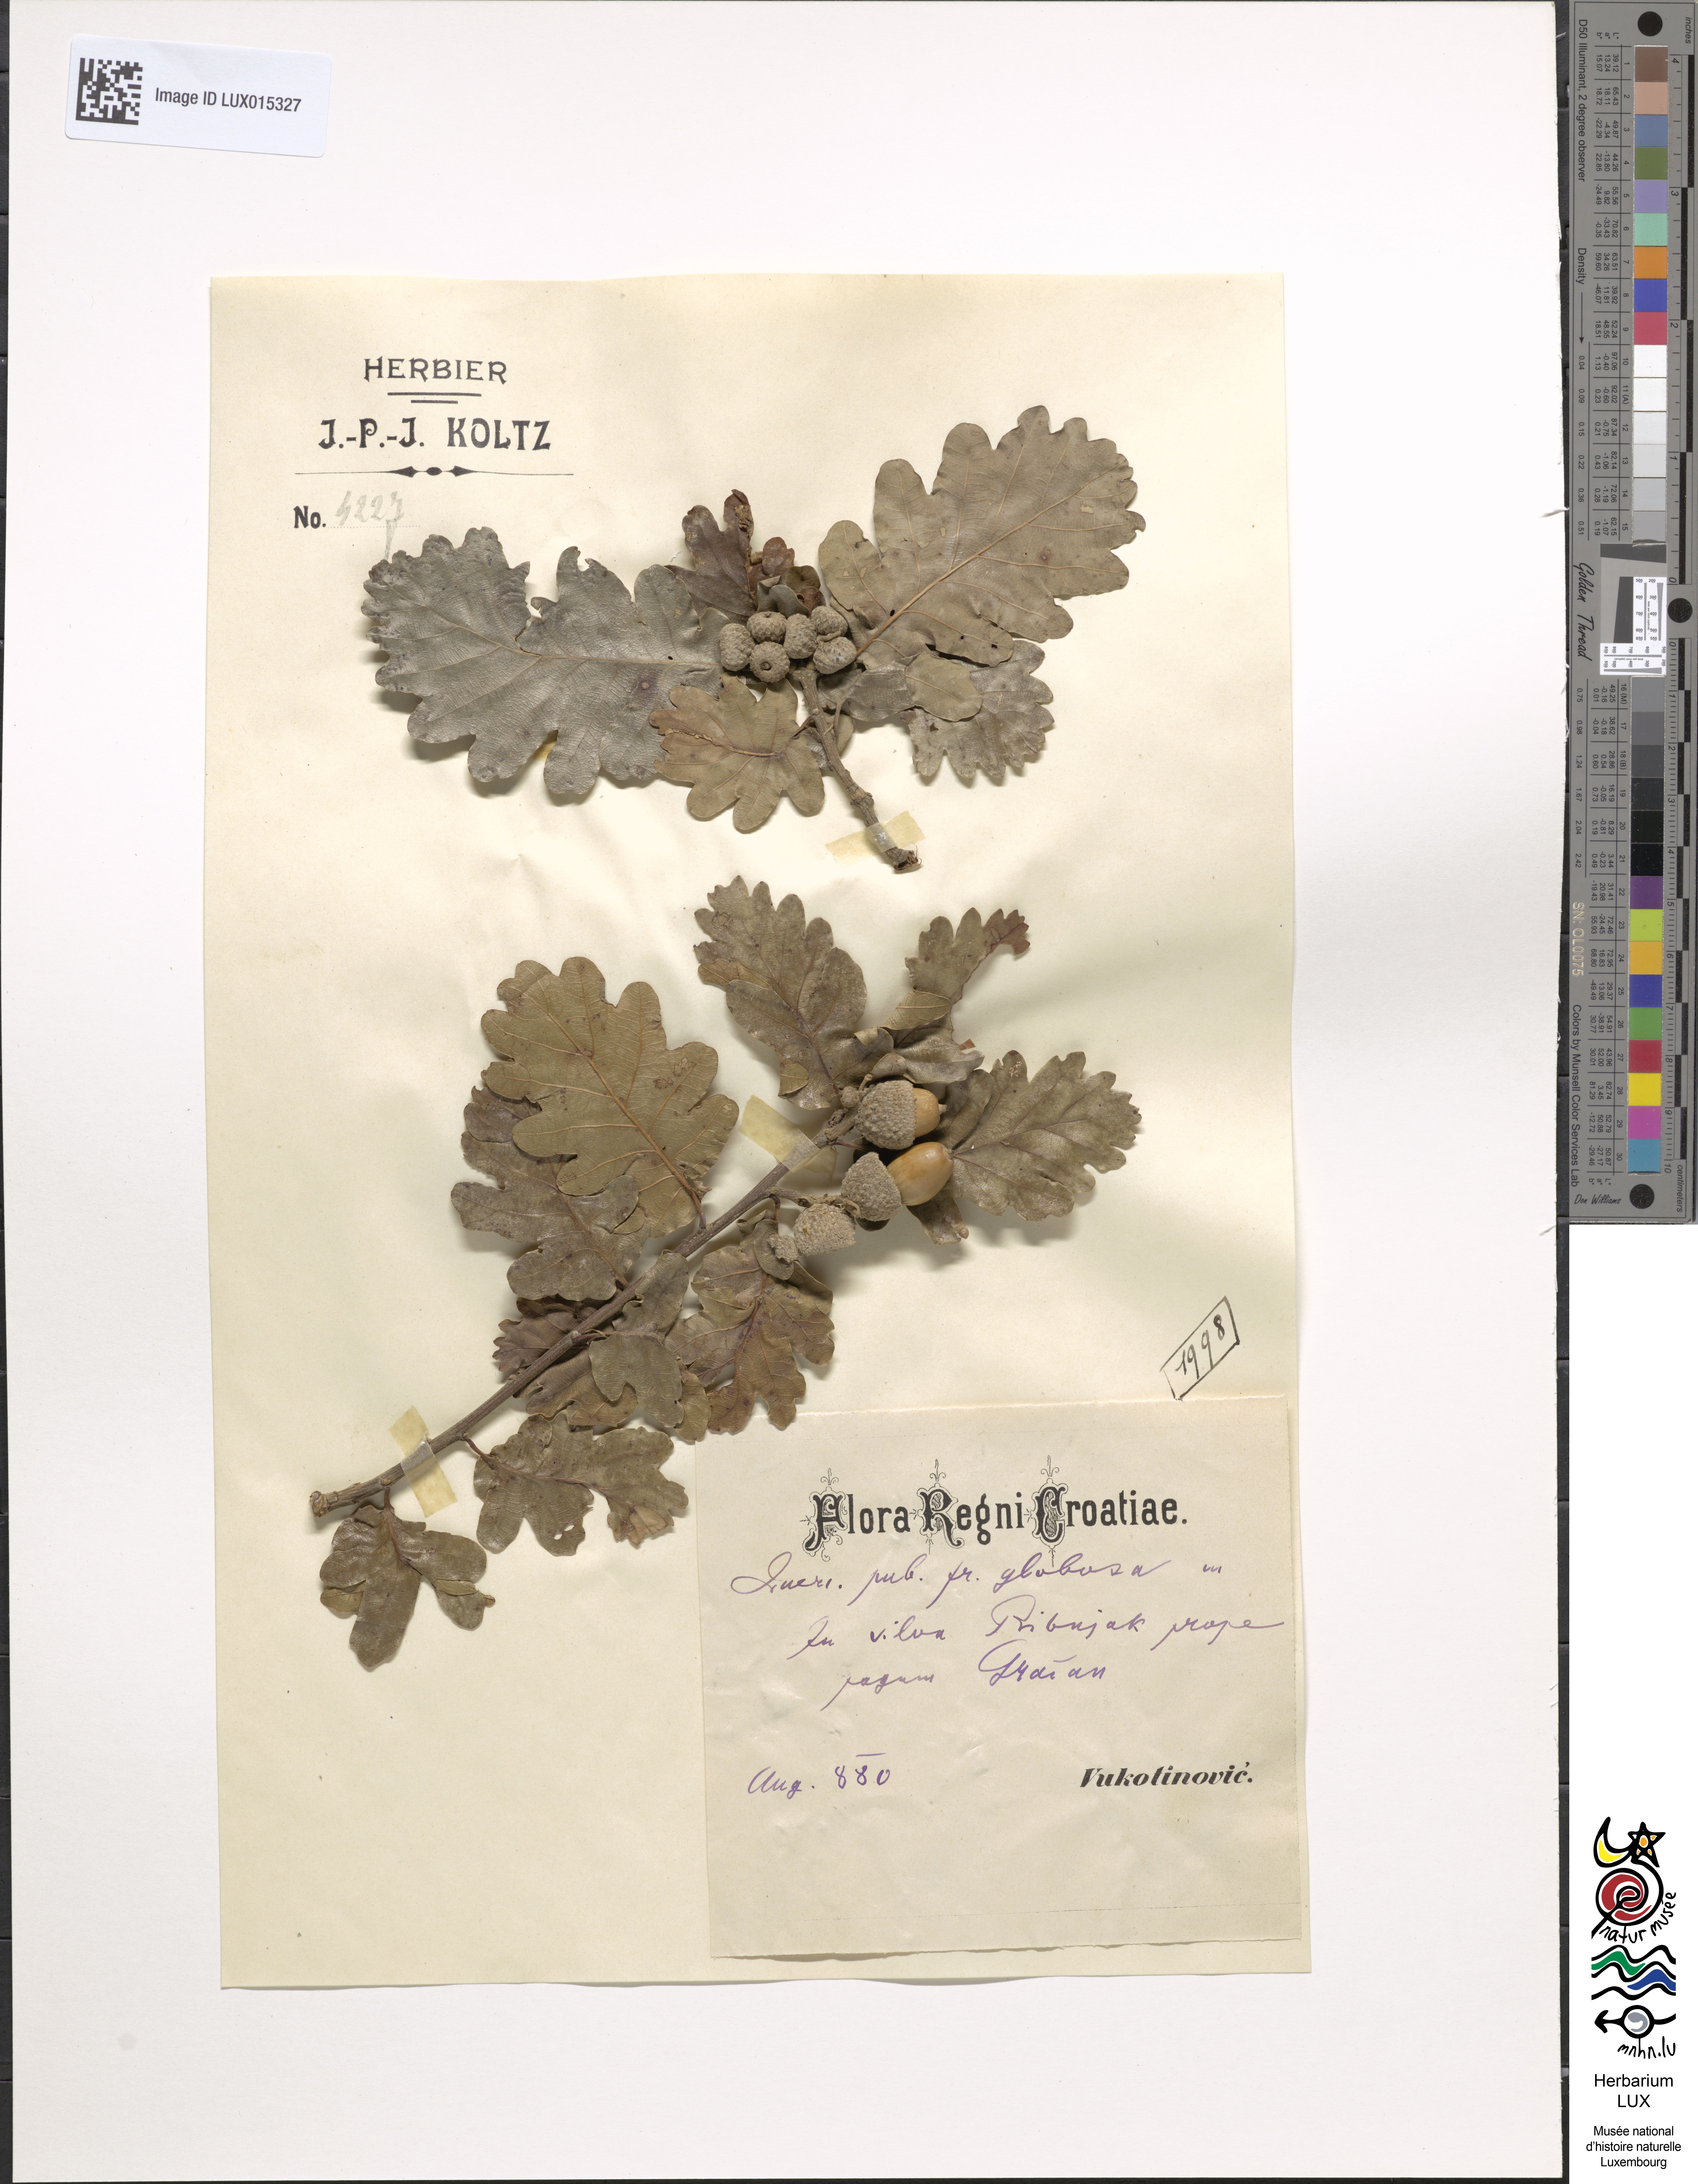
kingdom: Plantae
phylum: Tracheophyta
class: Magnoliopsida
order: Fagales
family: Fagaceae
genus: Quercus
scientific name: Quercus pubescens
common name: Downy oak
